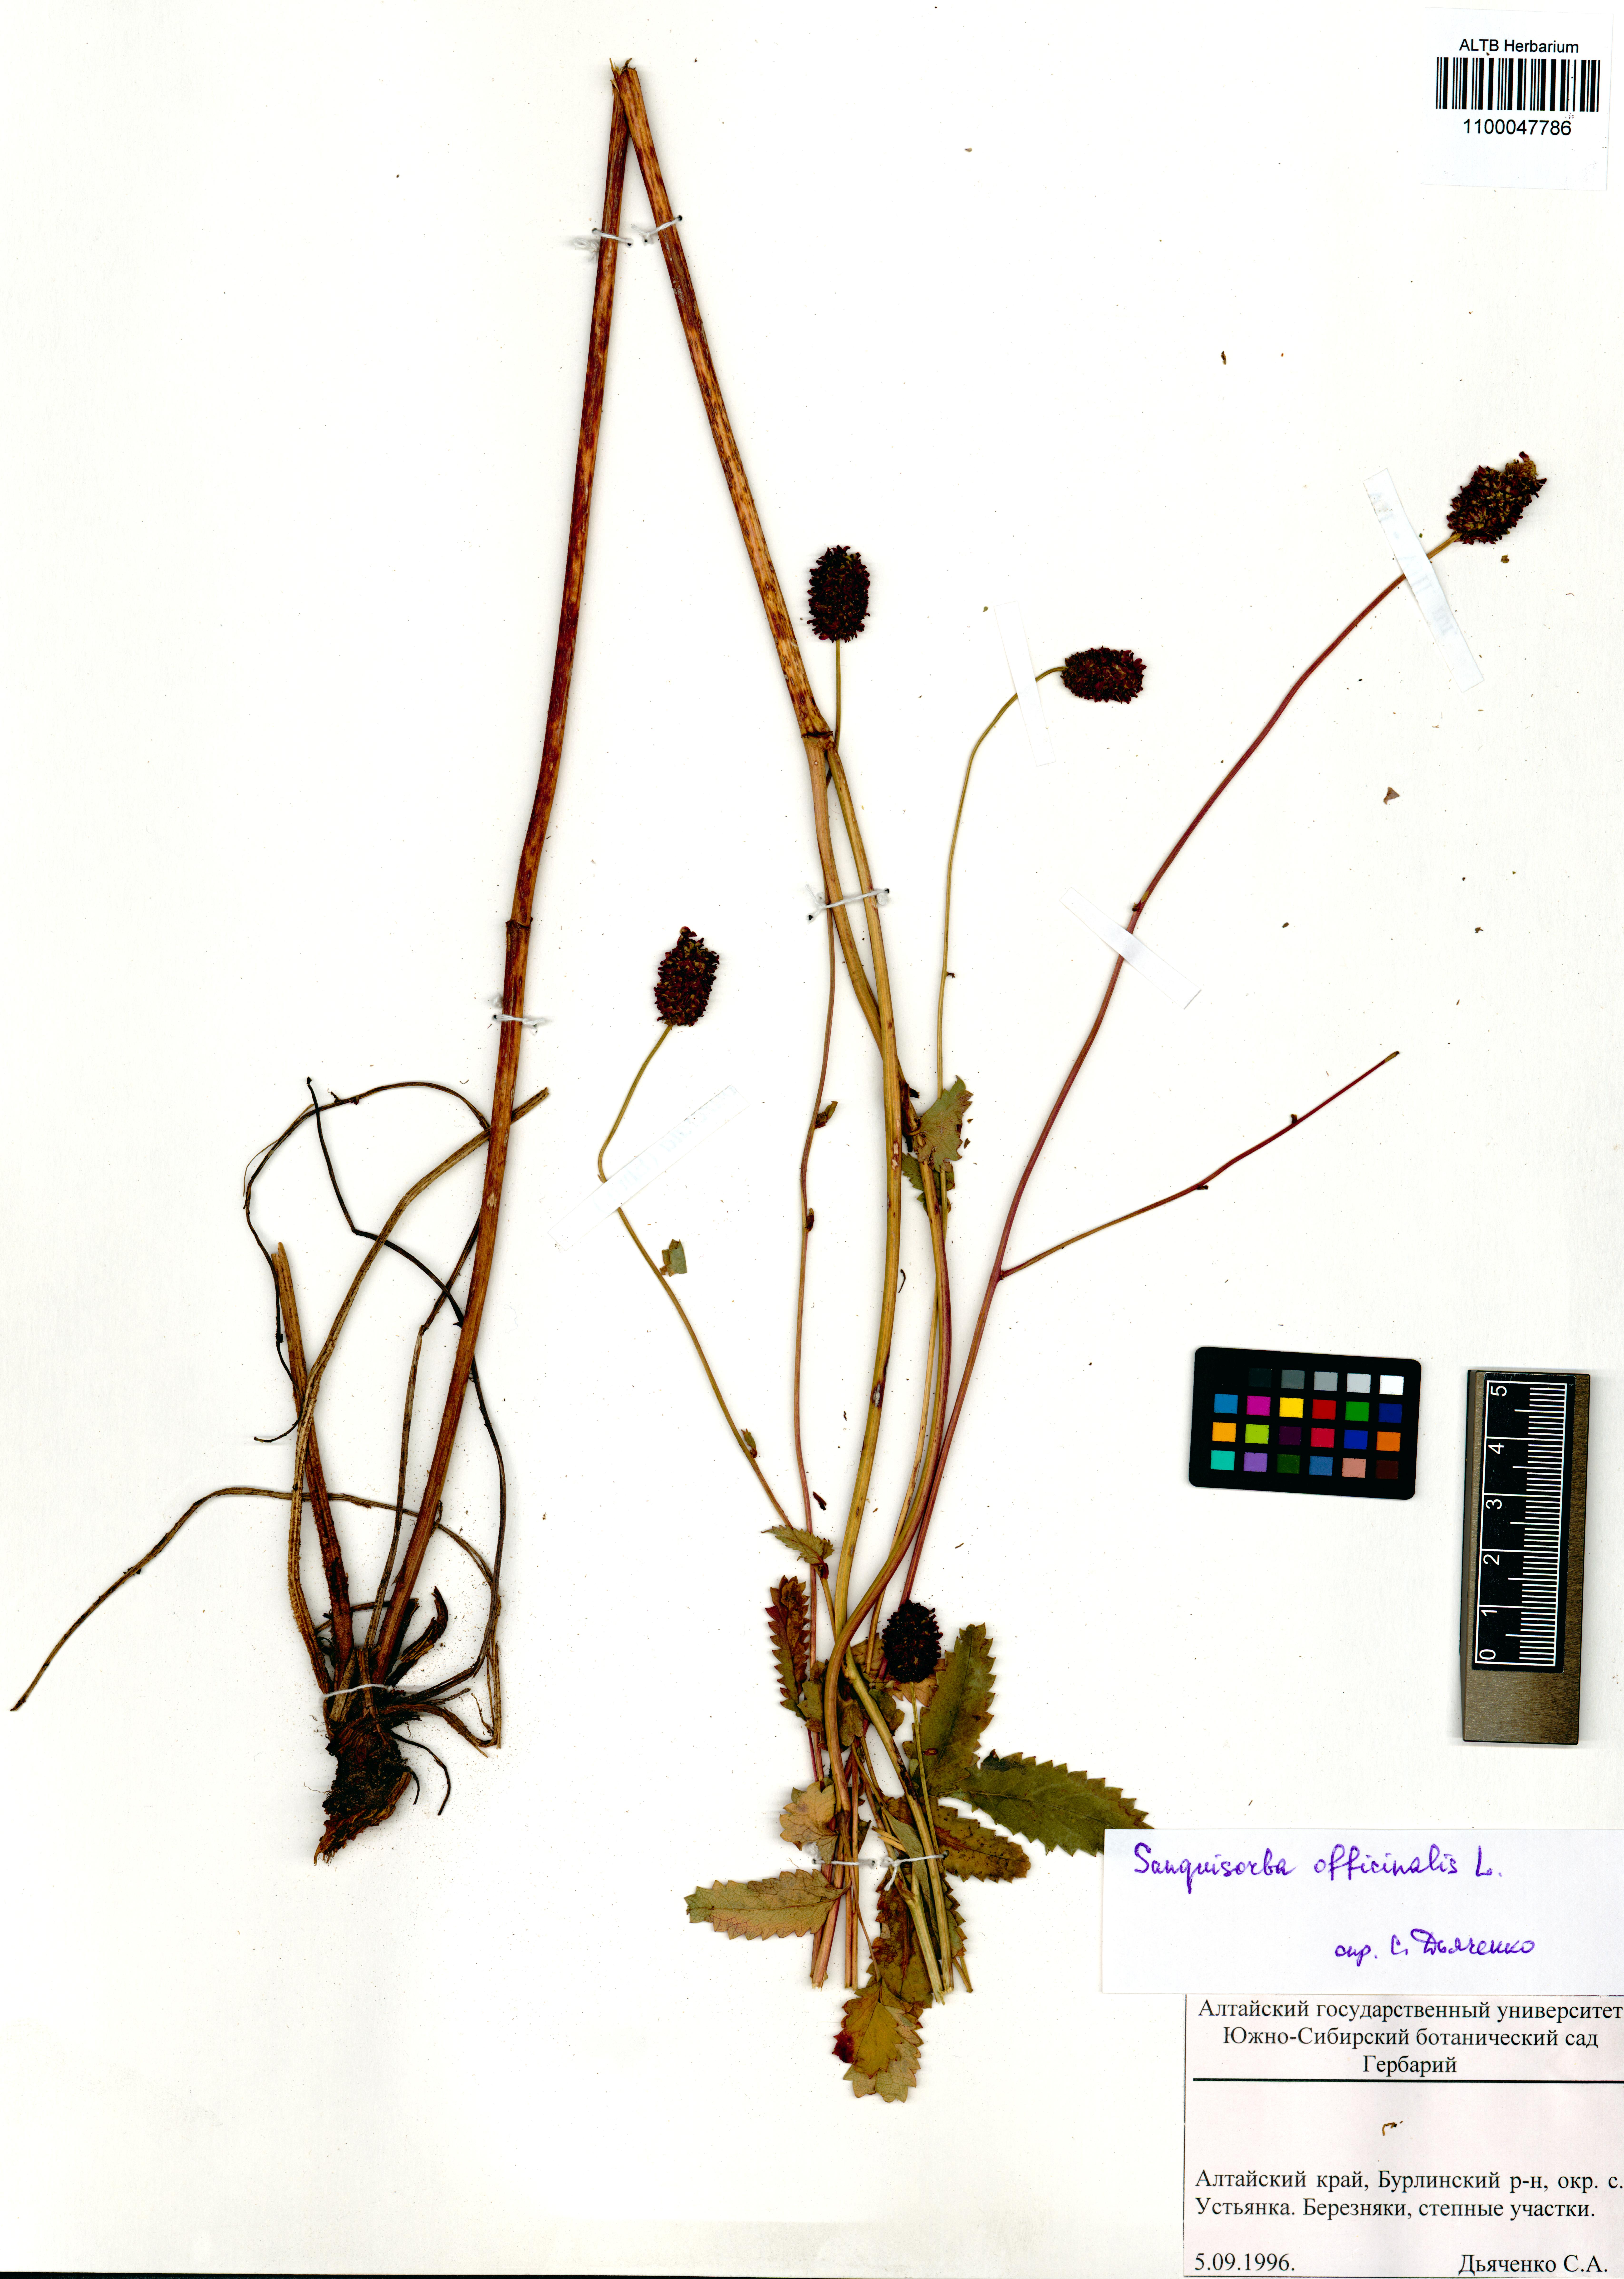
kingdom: Plantae
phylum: Tracheophyta
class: Magnoliopsida
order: Rosales
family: Rosaceae
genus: Sanguisorba
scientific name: Sanguisorba officinalis
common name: Great burnet
